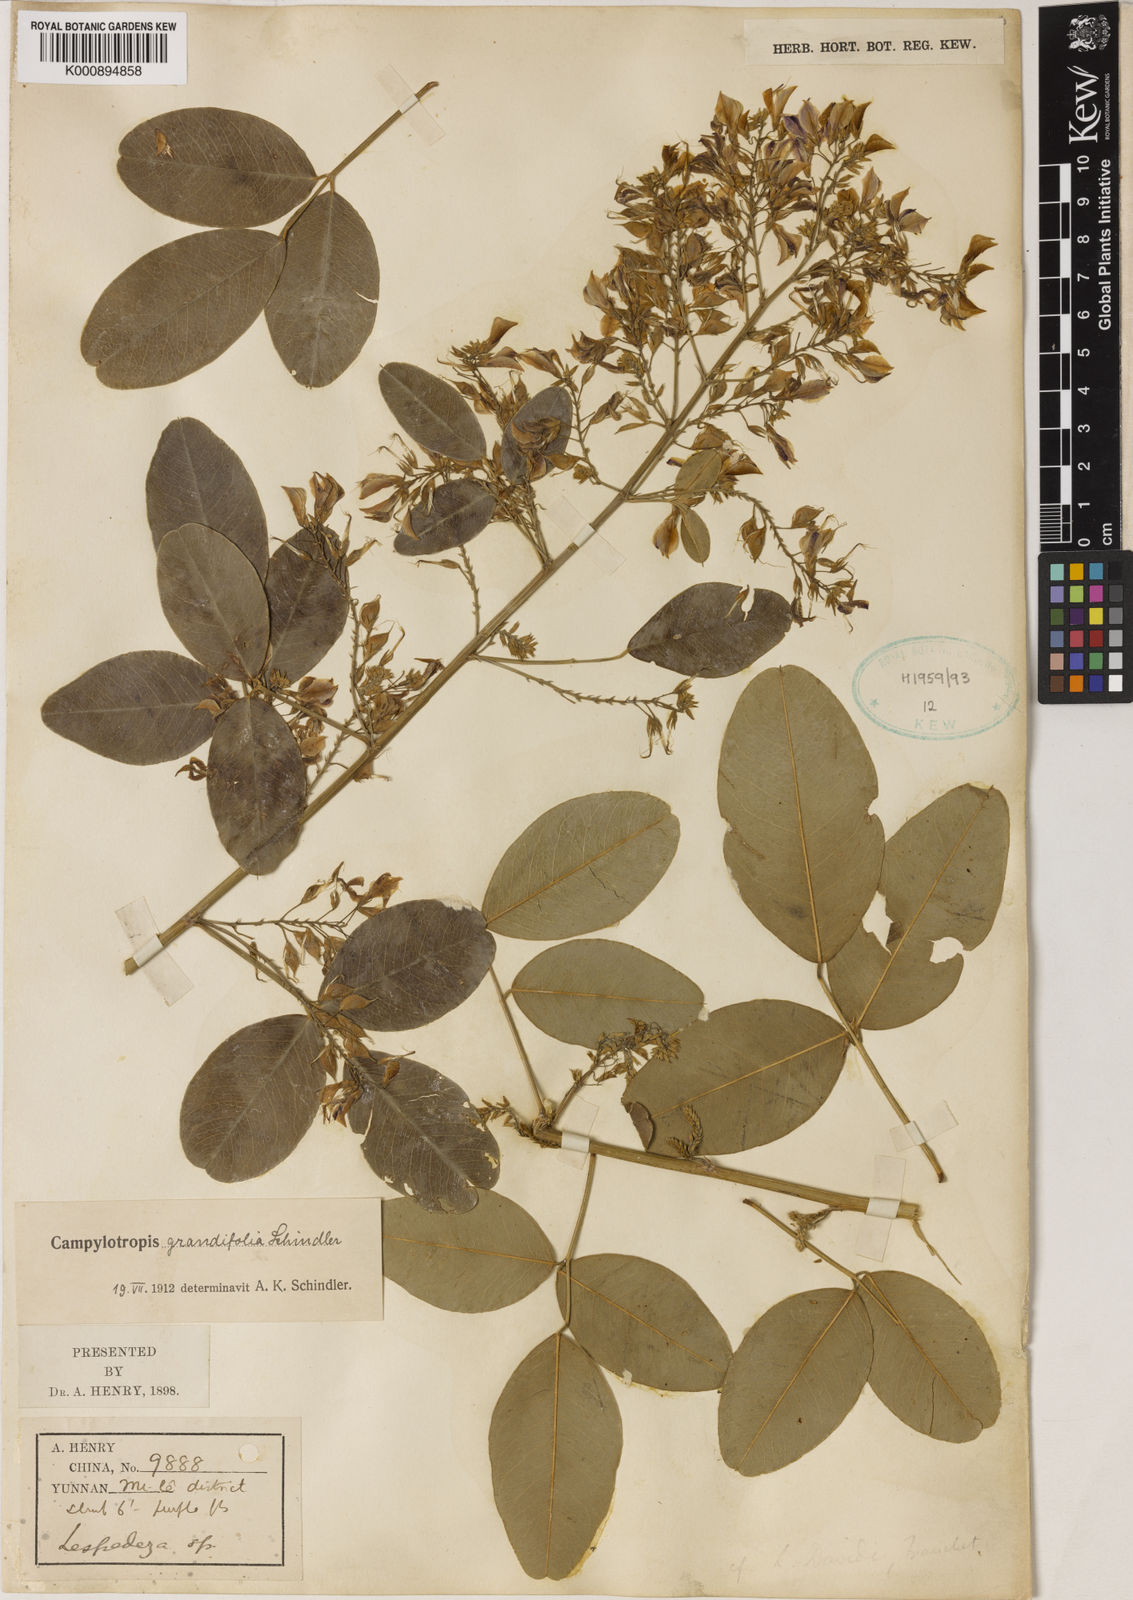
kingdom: Plantae
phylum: Tracheophyta
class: Magnoliopsida
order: Fabales
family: Fabaceae
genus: Campylotropis
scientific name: Campylotropis grandifolia
